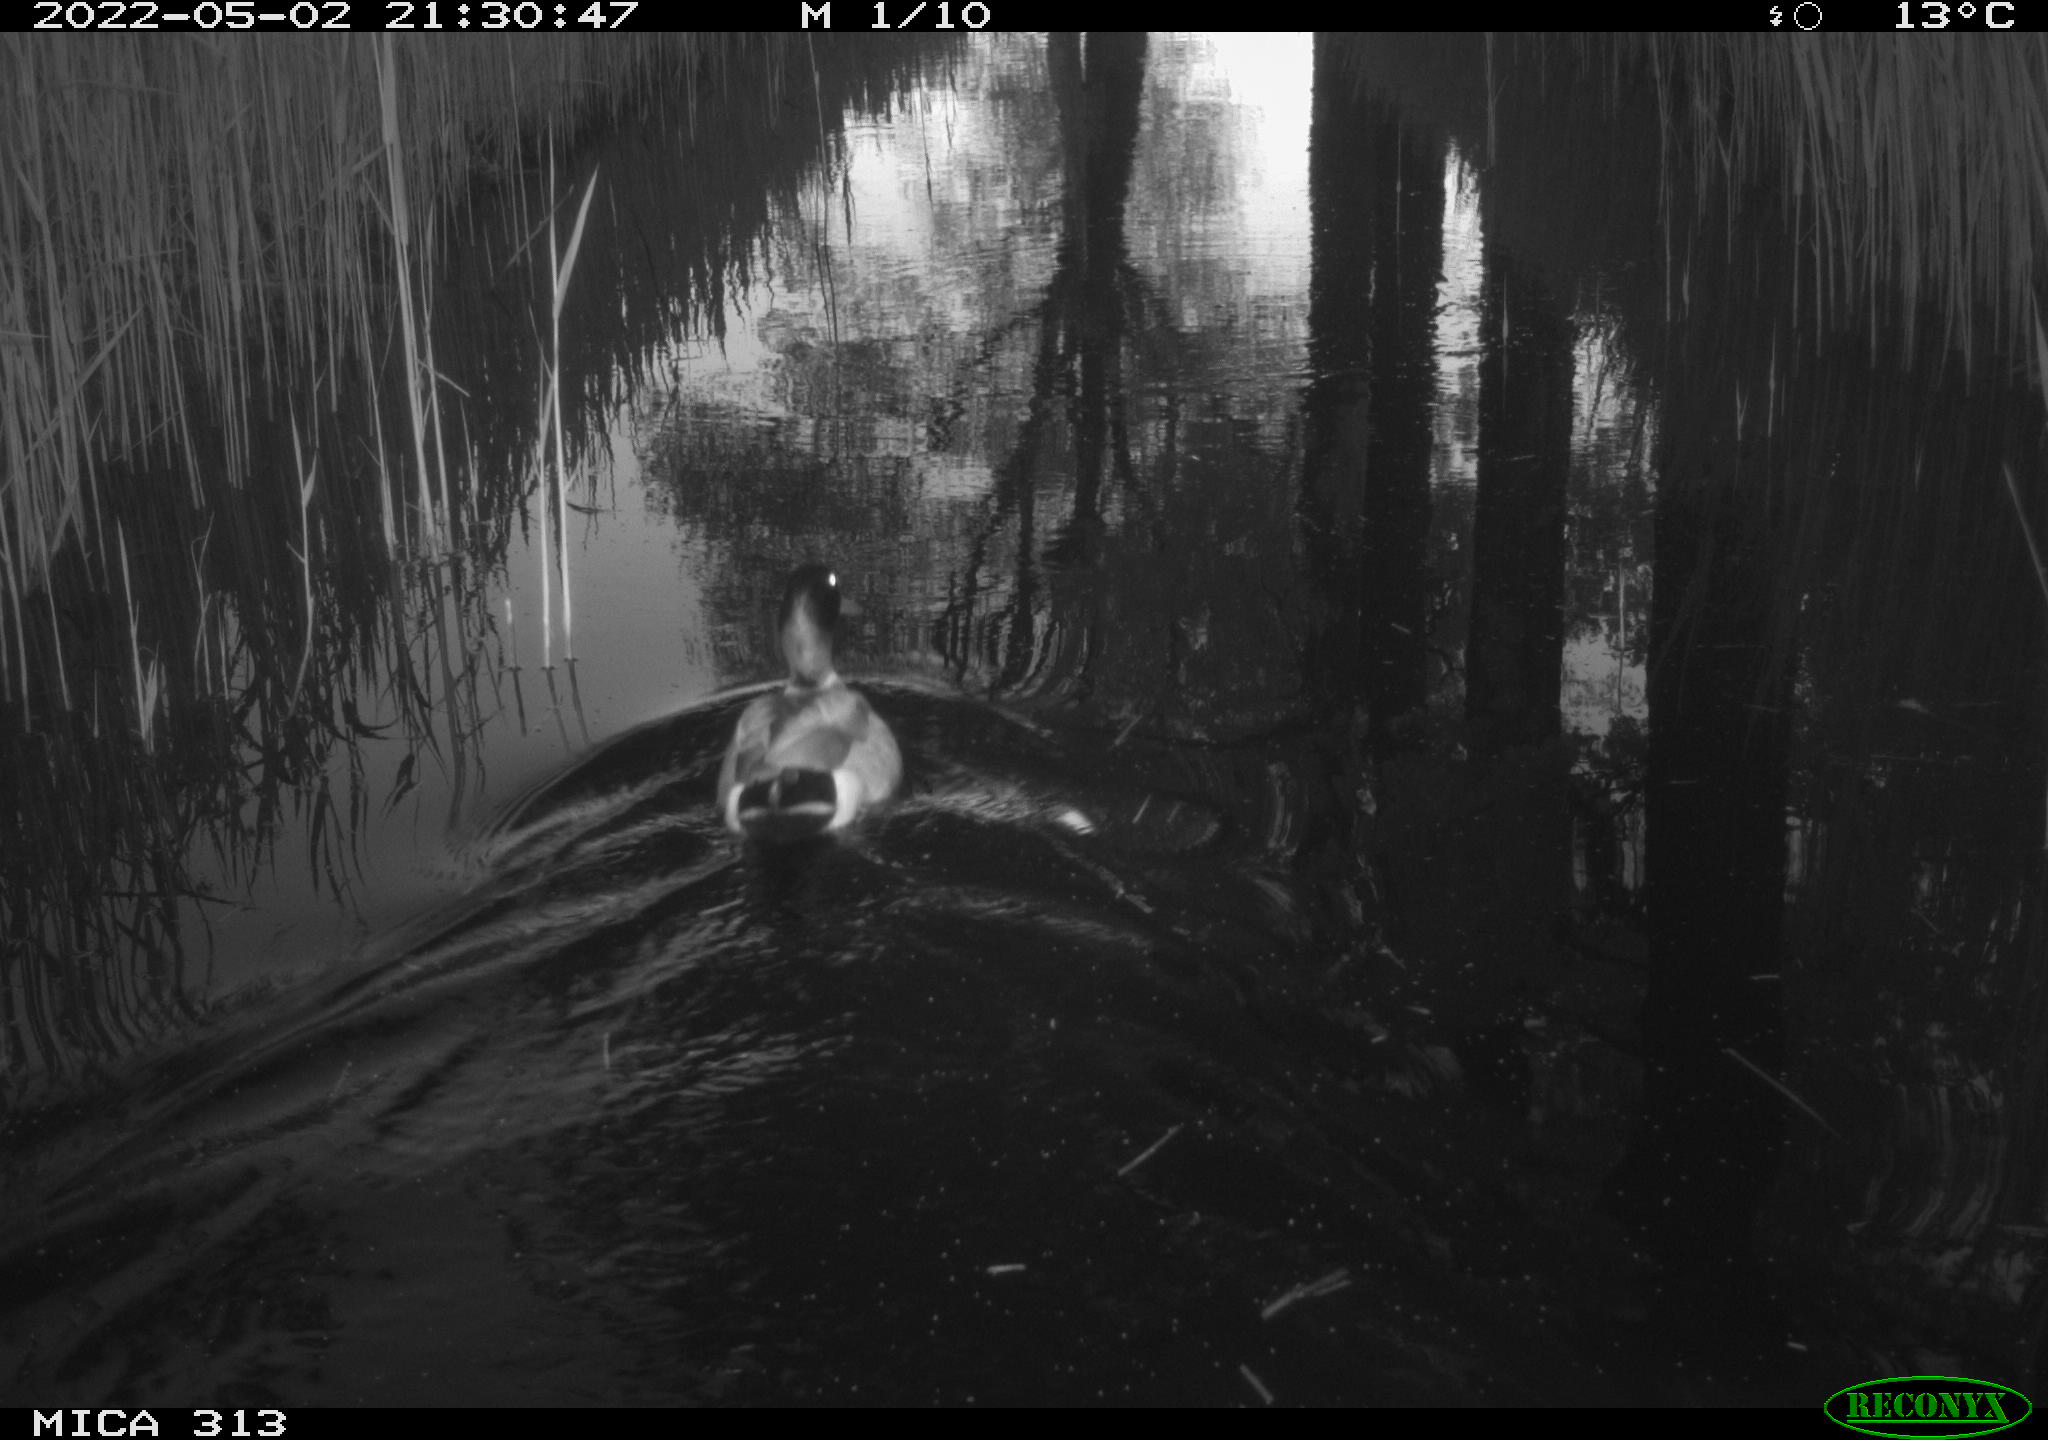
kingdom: Animalia
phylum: Chordata
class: Aves
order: Anseriformes
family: Anatidae
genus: Anas
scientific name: Anas platyrhynchos
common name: Mallard
